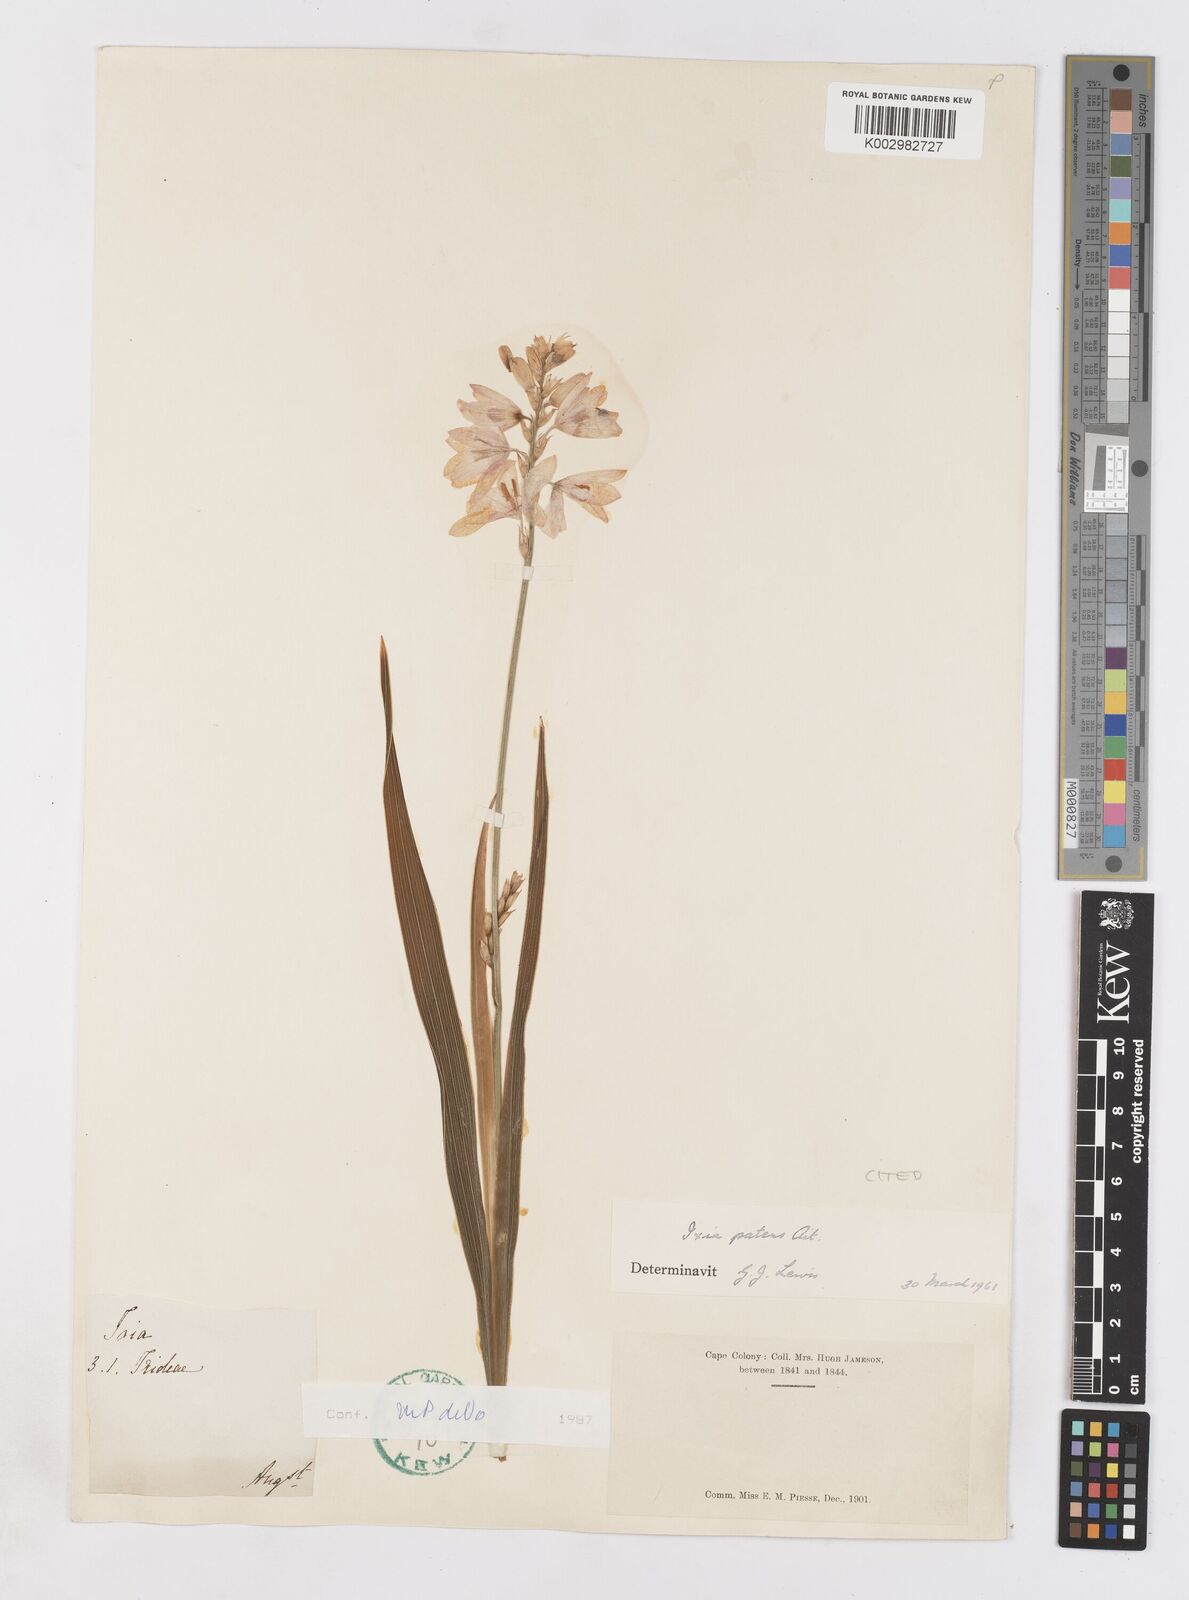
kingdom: Plantae
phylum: Tracheophyta
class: Liliopsida
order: Asparagales
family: Iridaceae
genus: Ixia
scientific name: Ixia patens
